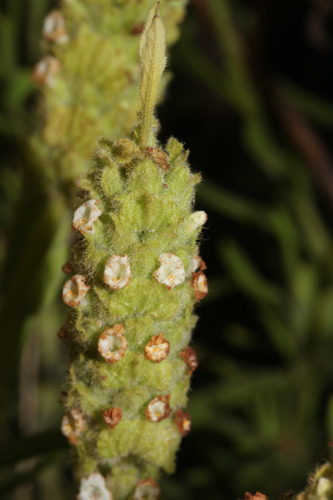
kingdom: Plantae
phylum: Tracheophyta
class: Magnoliopsida
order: Lamiales
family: Lamiaceae
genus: Lavandula
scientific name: Lavandula viridis
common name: Green spanish lavender
